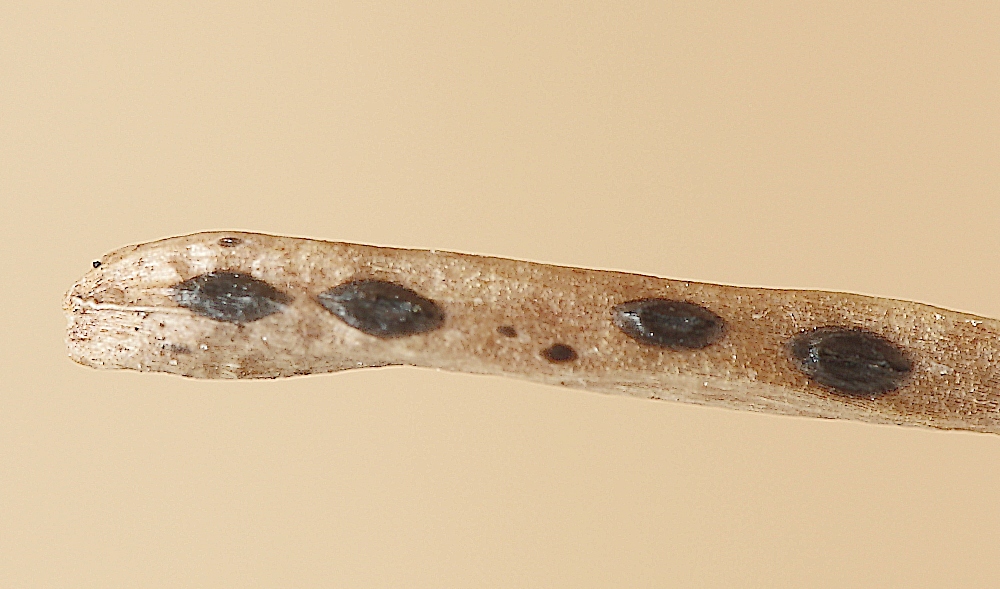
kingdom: Fungi
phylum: Ascomycota
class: Leotiomycetes
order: Rhytismatales
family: Rhytismataceae
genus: Lophodermium
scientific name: Lophodermium juniperinum
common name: ene-fureplet
